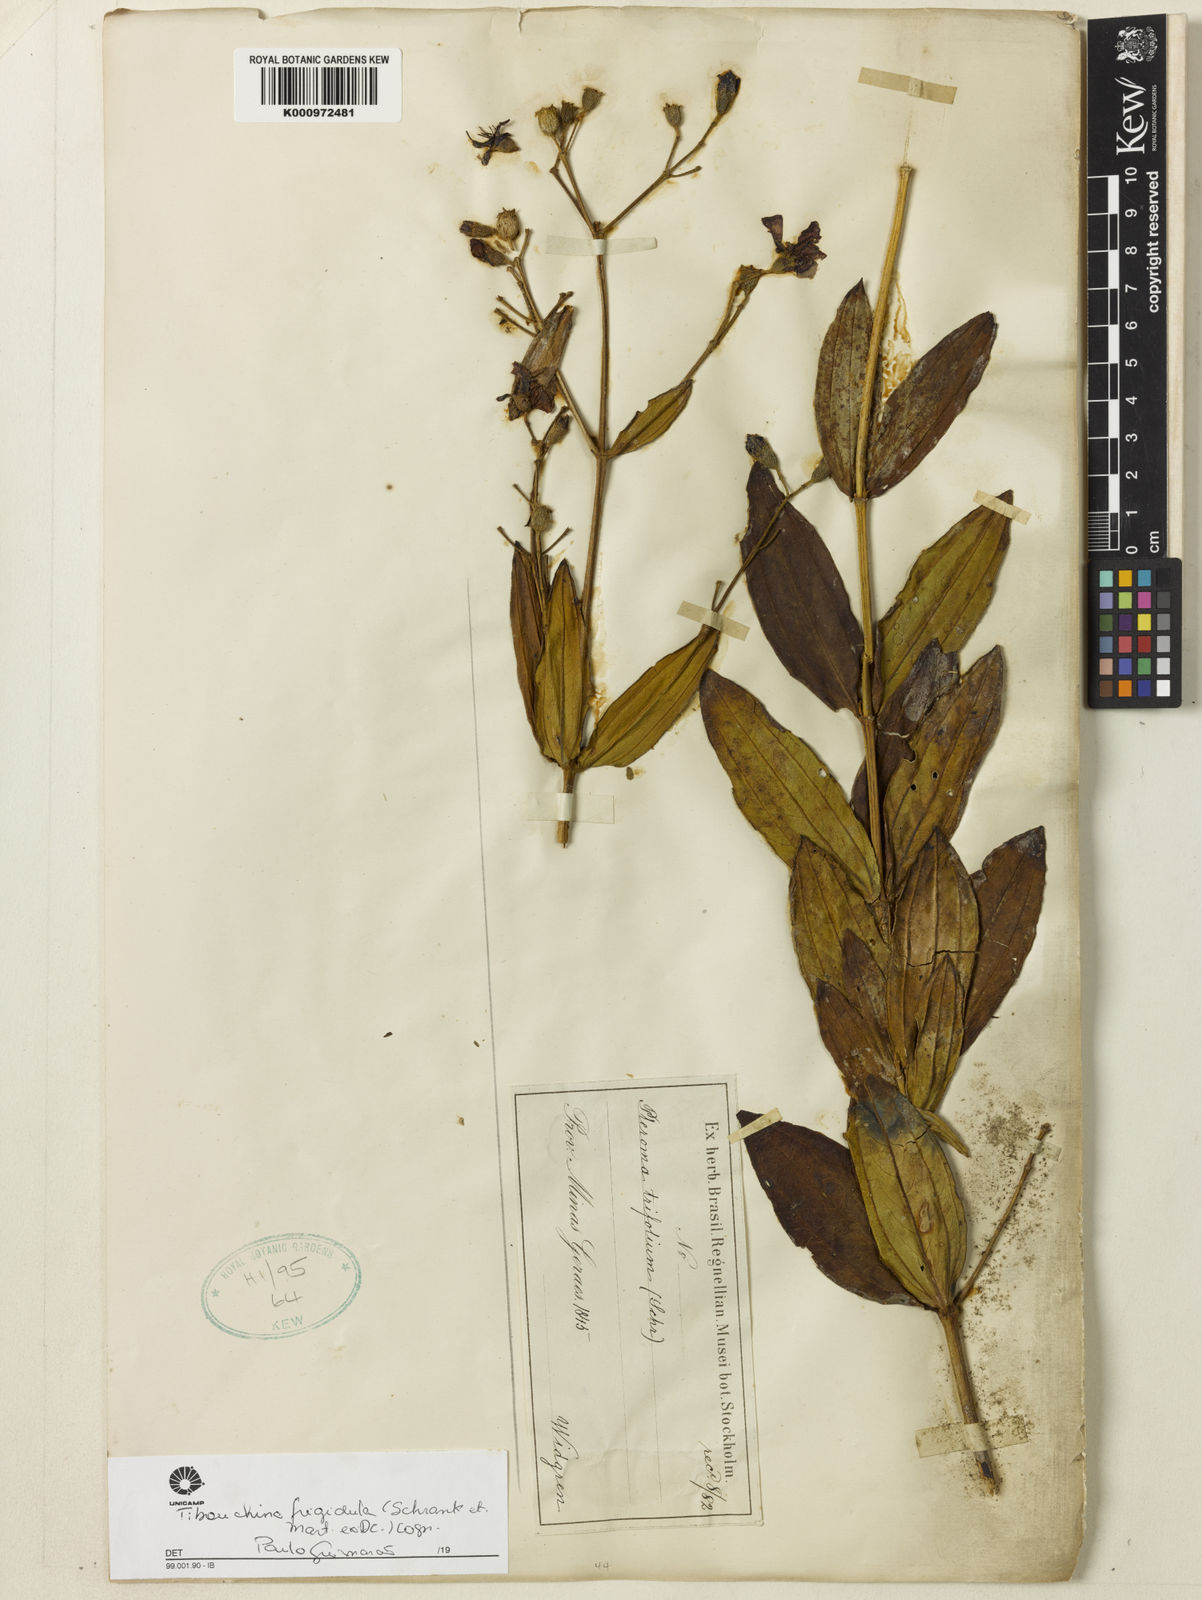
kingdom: Plantae
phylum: Tracheophyta
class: Magnoliopsida
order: Myrtales
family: Melastomataceae
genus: Pleroma
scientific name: Pleroma martiusianum
